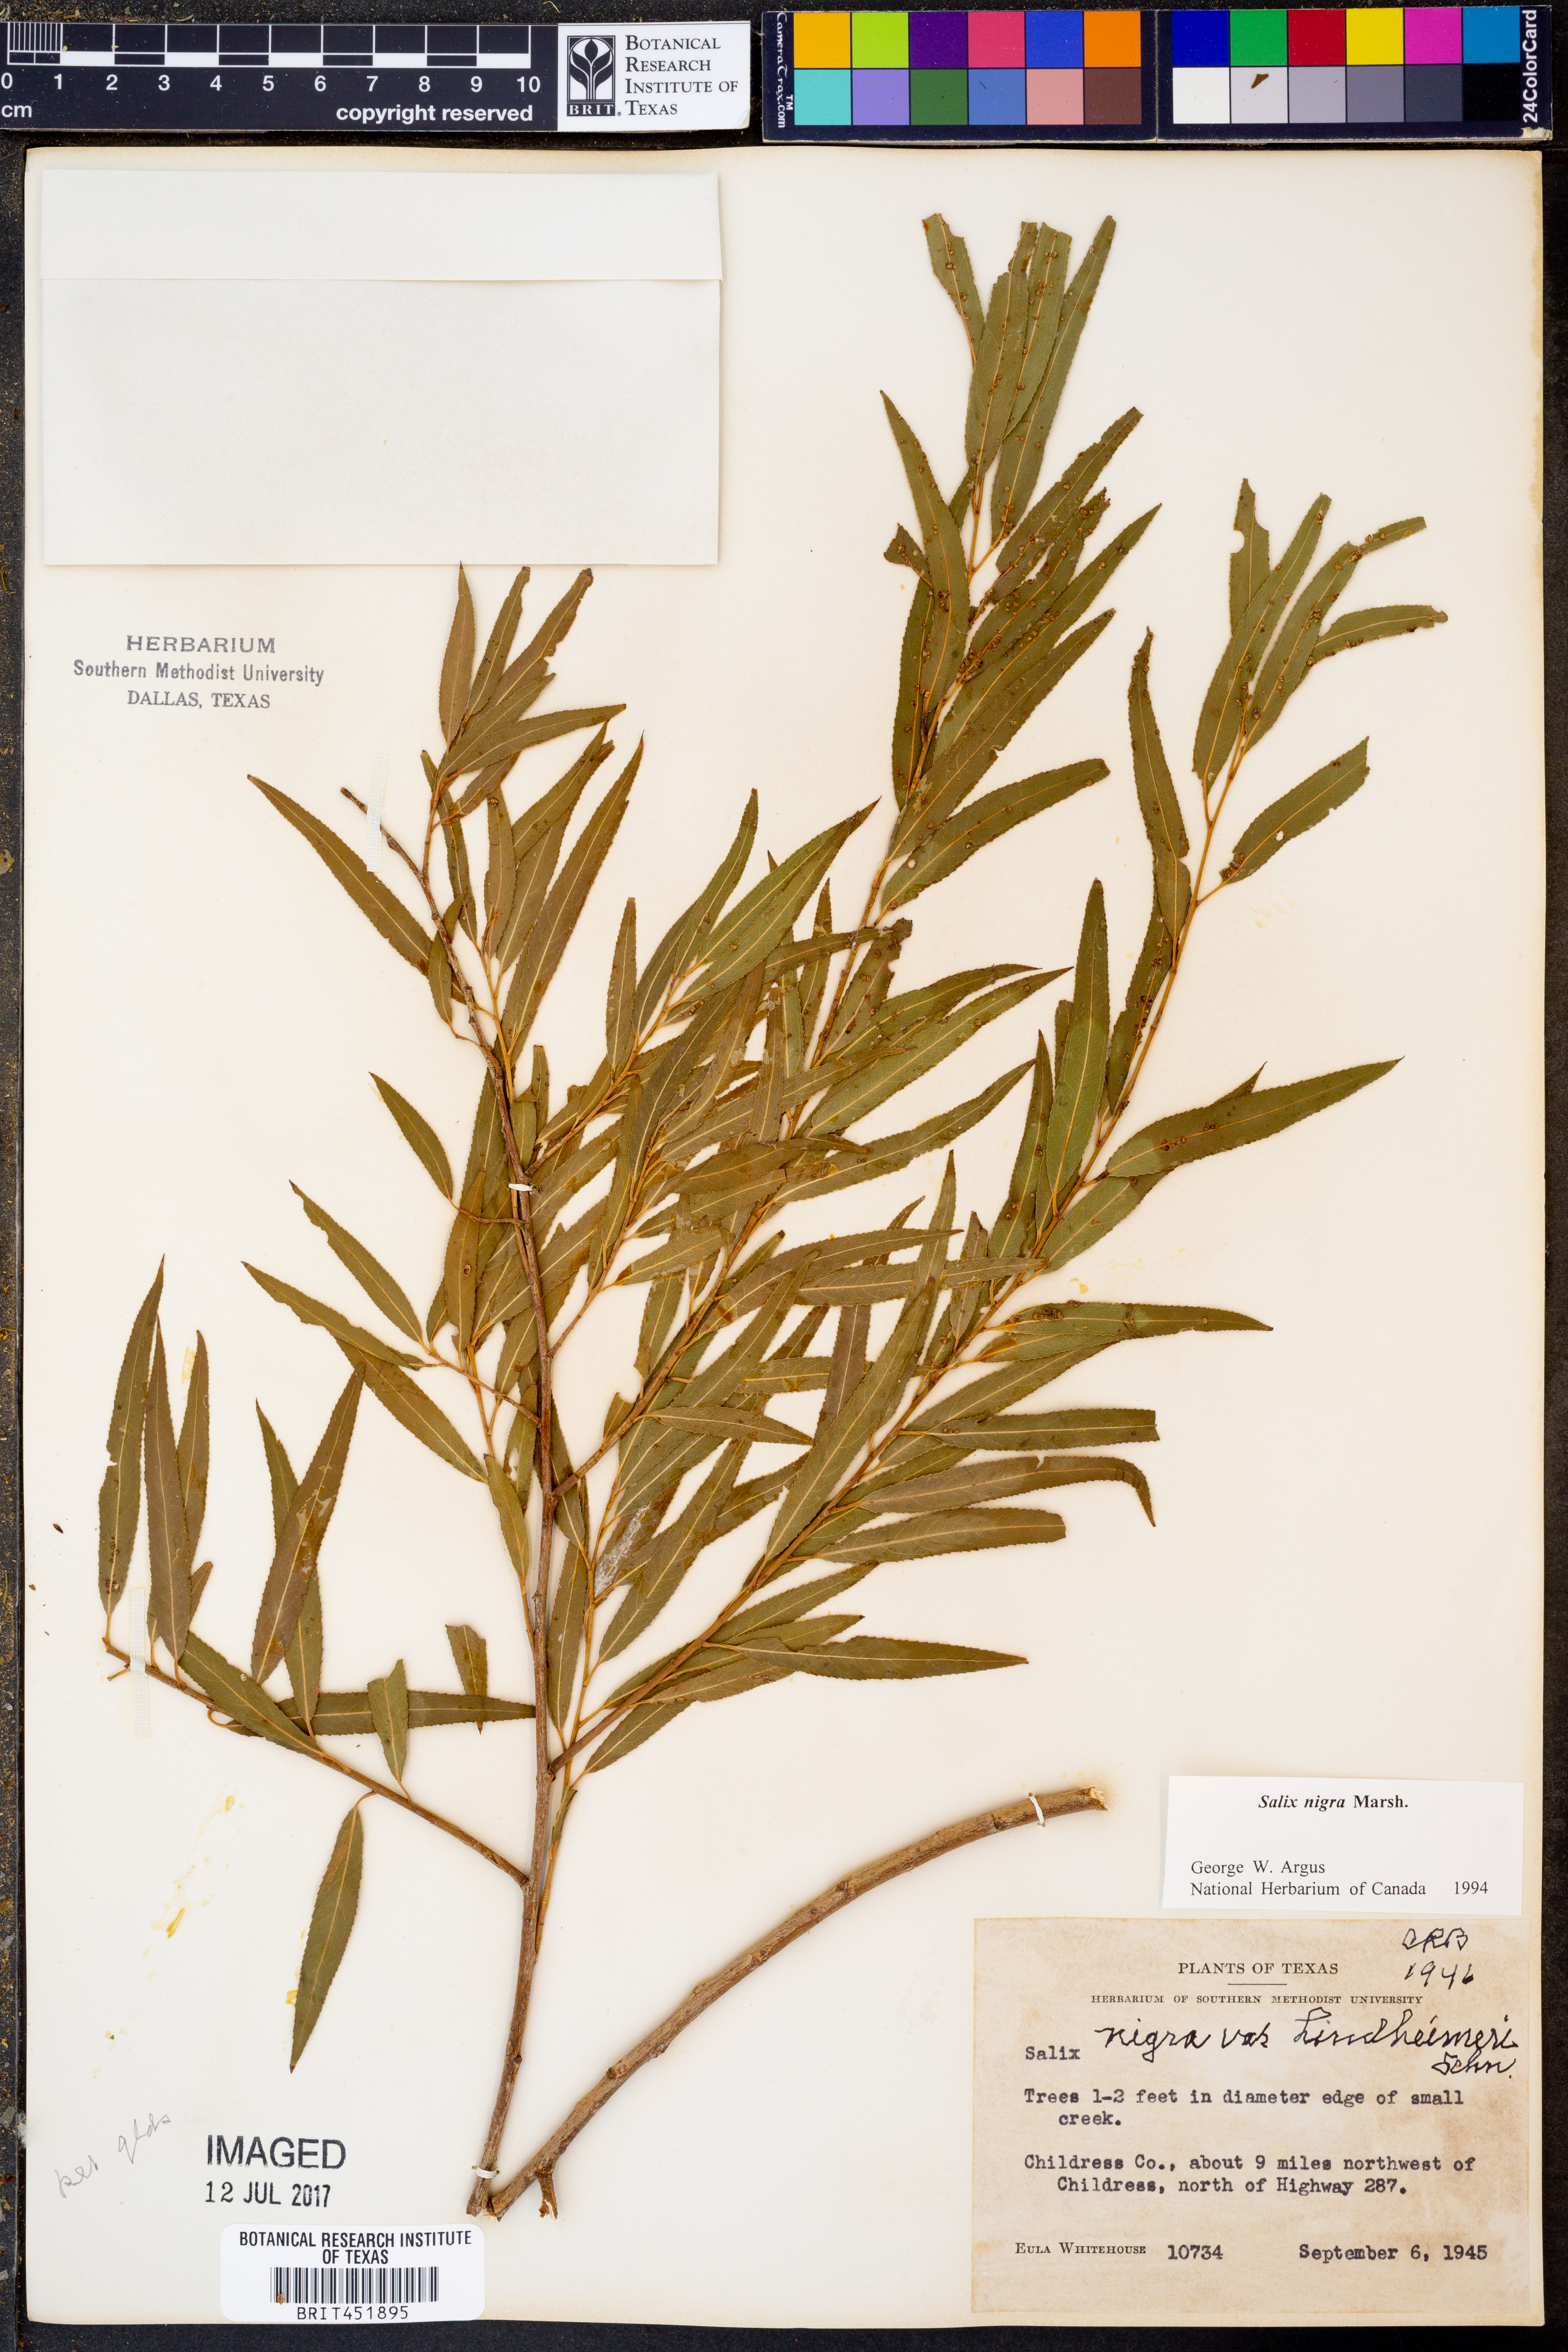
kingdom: Plantae
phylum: Tracheophyta
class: Magnoliopsida
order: Malpighiales
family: Salicaceae
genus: Salix
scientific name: Salix nigra
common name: Black willow
